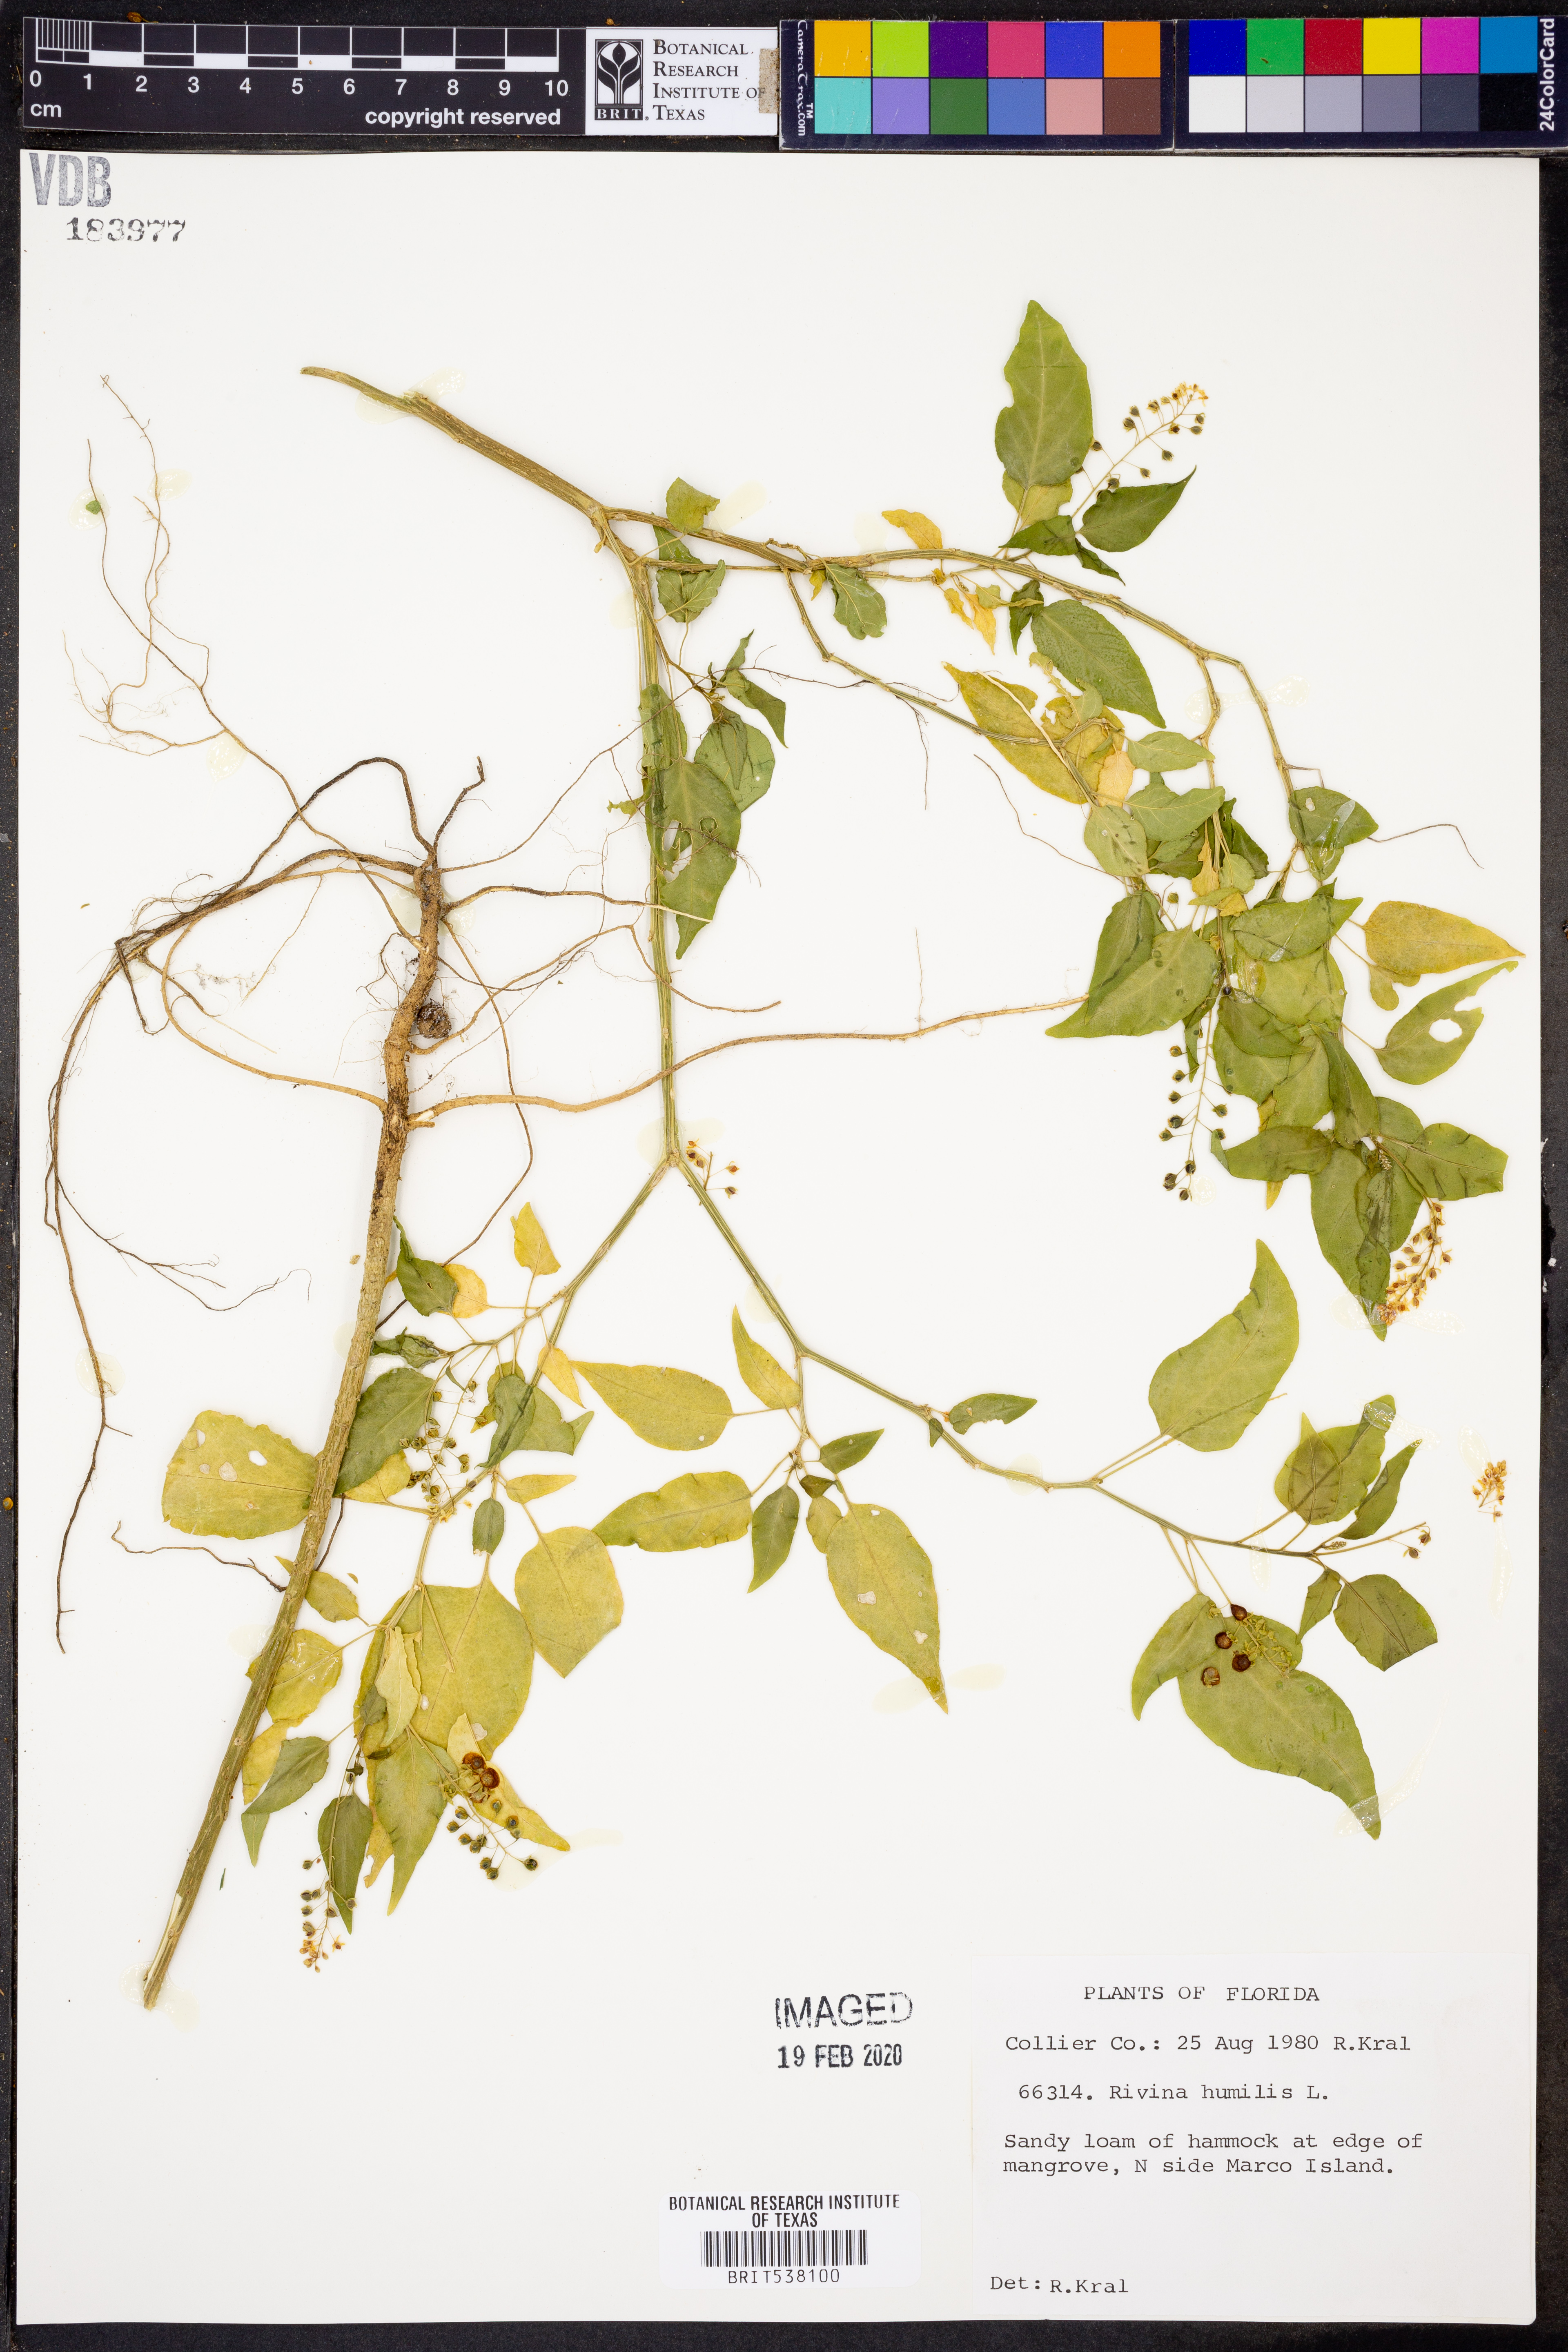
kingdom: Plantae
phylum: Tracheophyta
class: Magnoliopsida
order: Caryophyllales
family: Phytolaccaceae
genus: Rivina
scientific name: Rivina humilis
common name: Rougeplant
